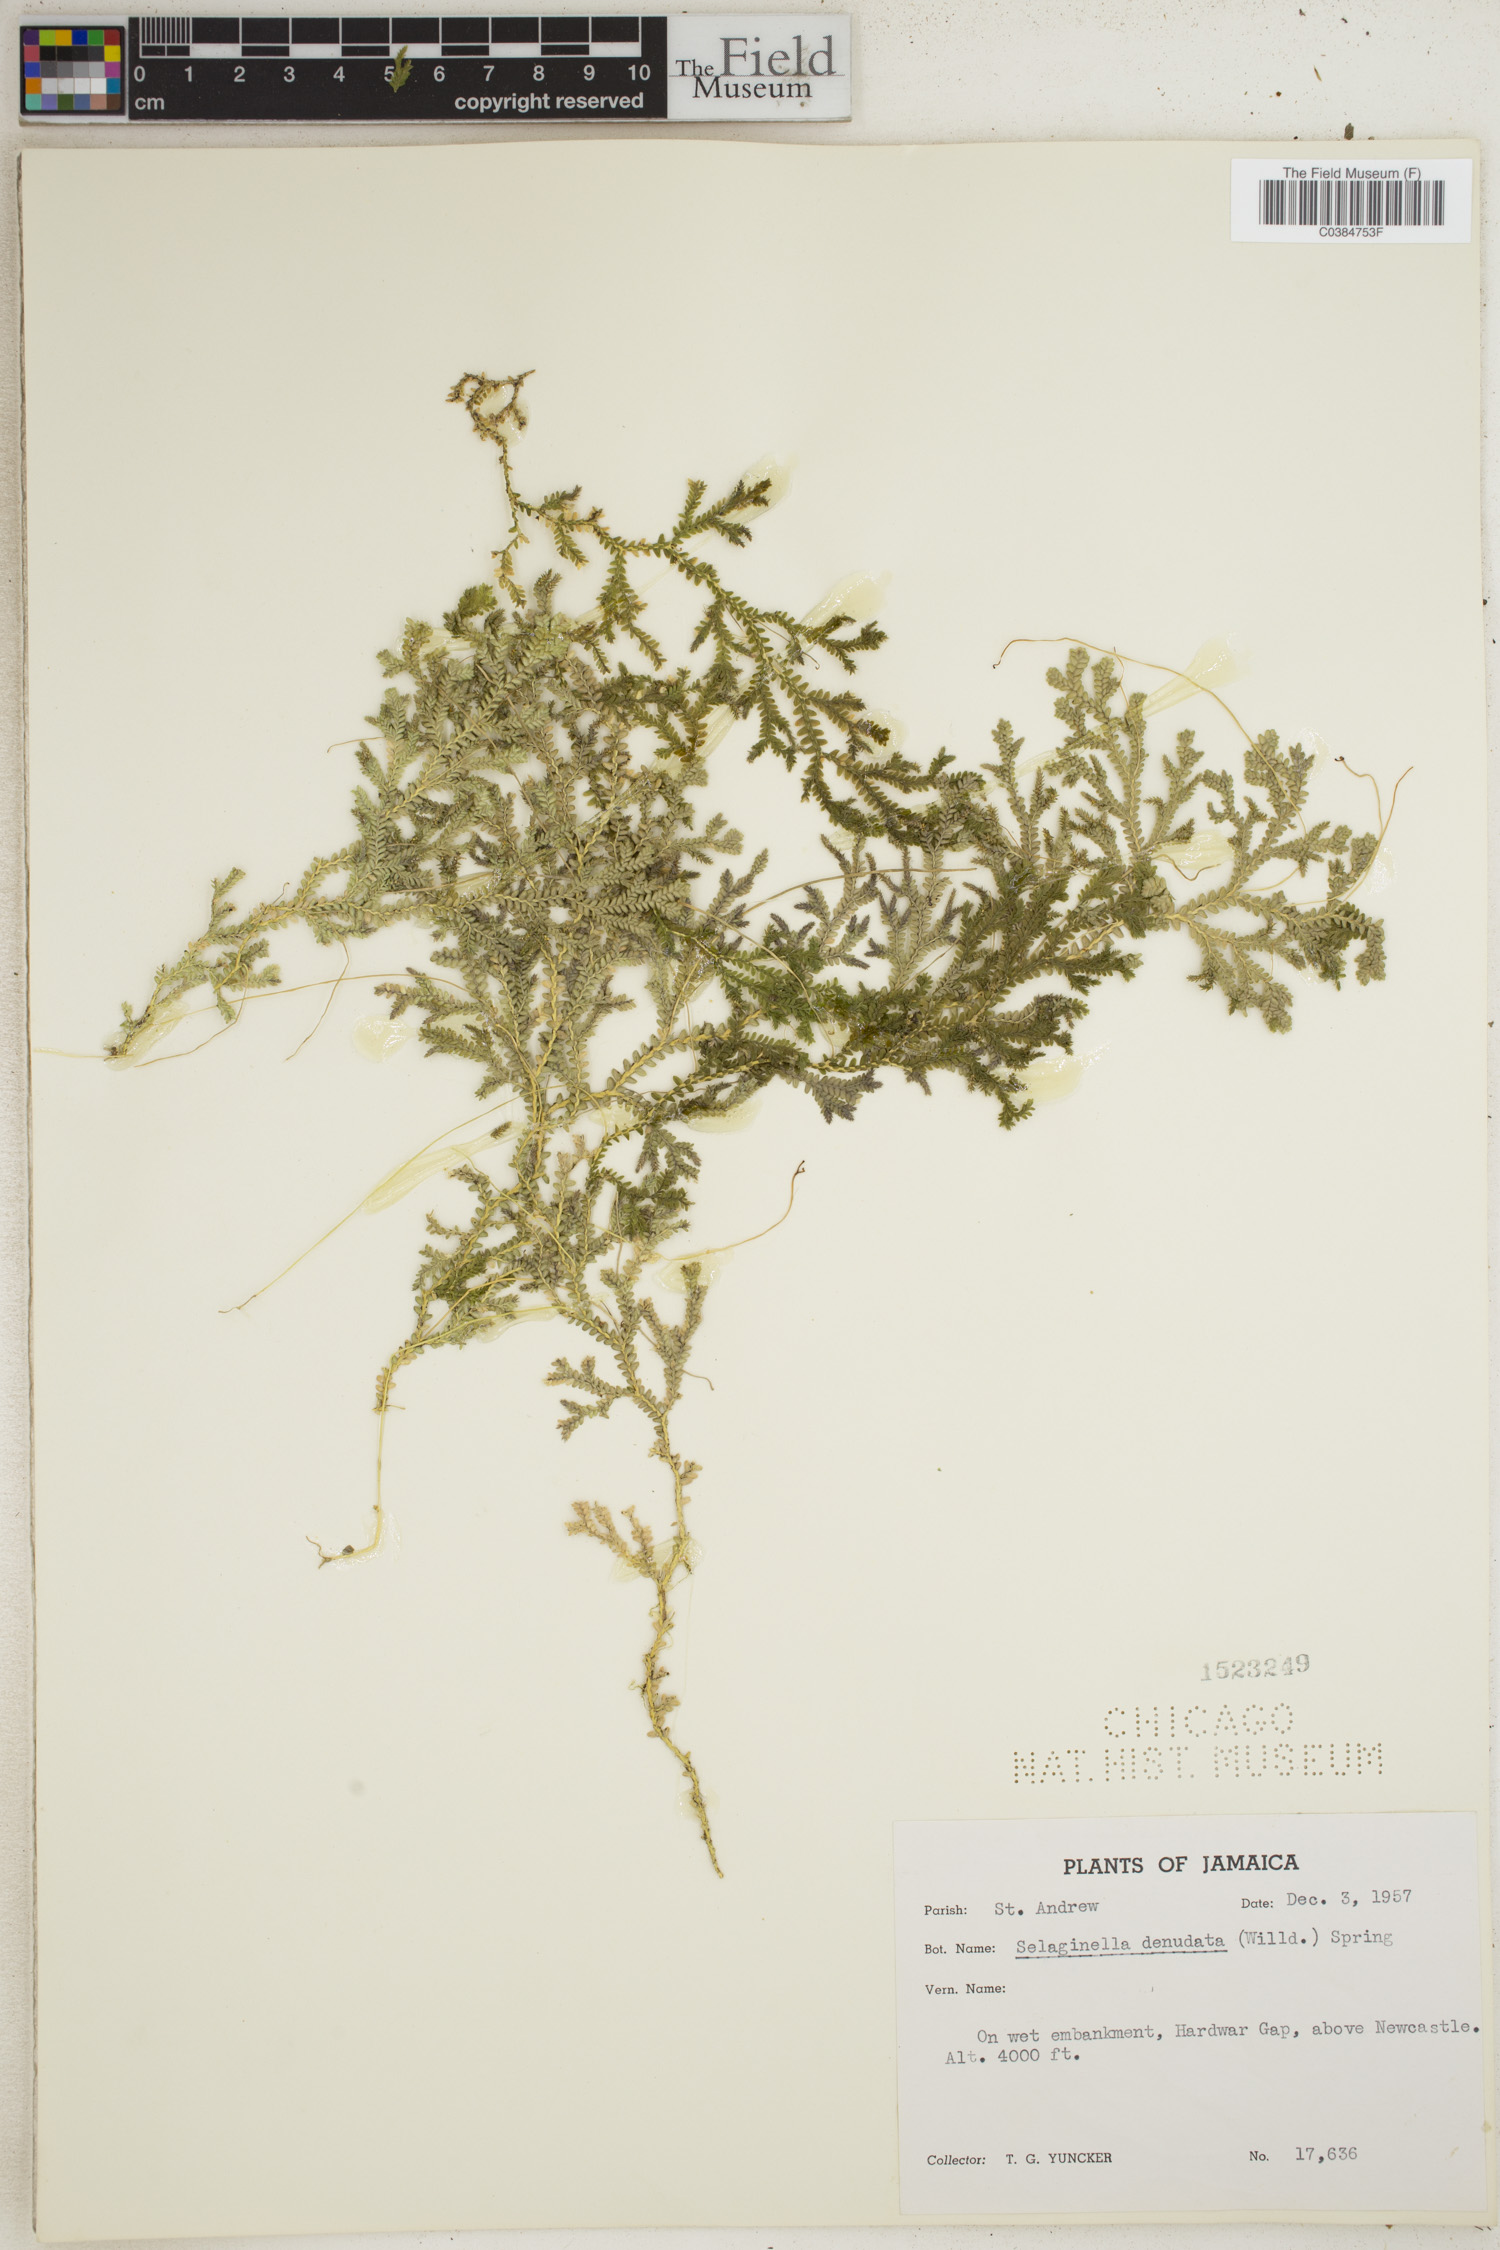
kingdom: Plantae
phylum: Tracheophyta
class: Lycopodiopsida
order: Selaginellales
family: Selaginellaceae
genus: Selaginella
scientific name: Selaginella denudata
